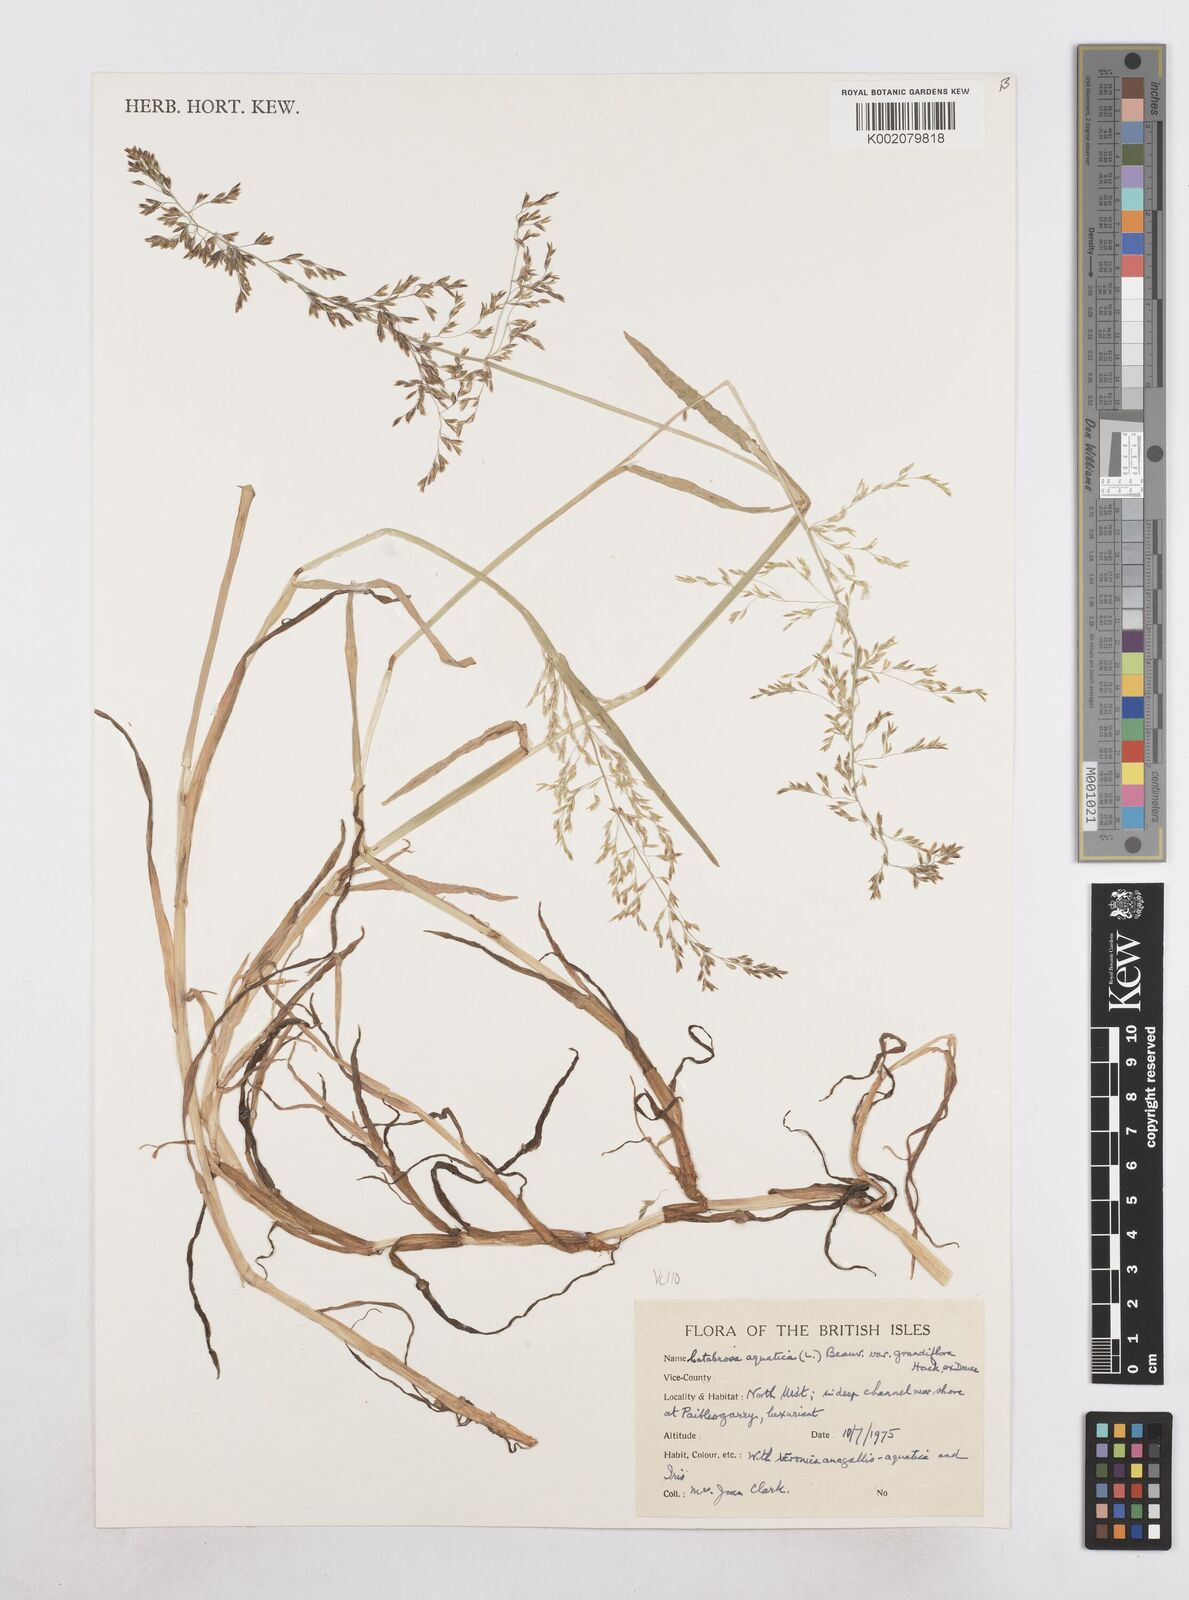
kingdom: Plantae
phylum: Tracheophyta
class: Liliopsida
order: Poales
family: Poaceae
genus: Catabrosa
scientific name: Catabrosa aquatica
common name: Whorl-grass
